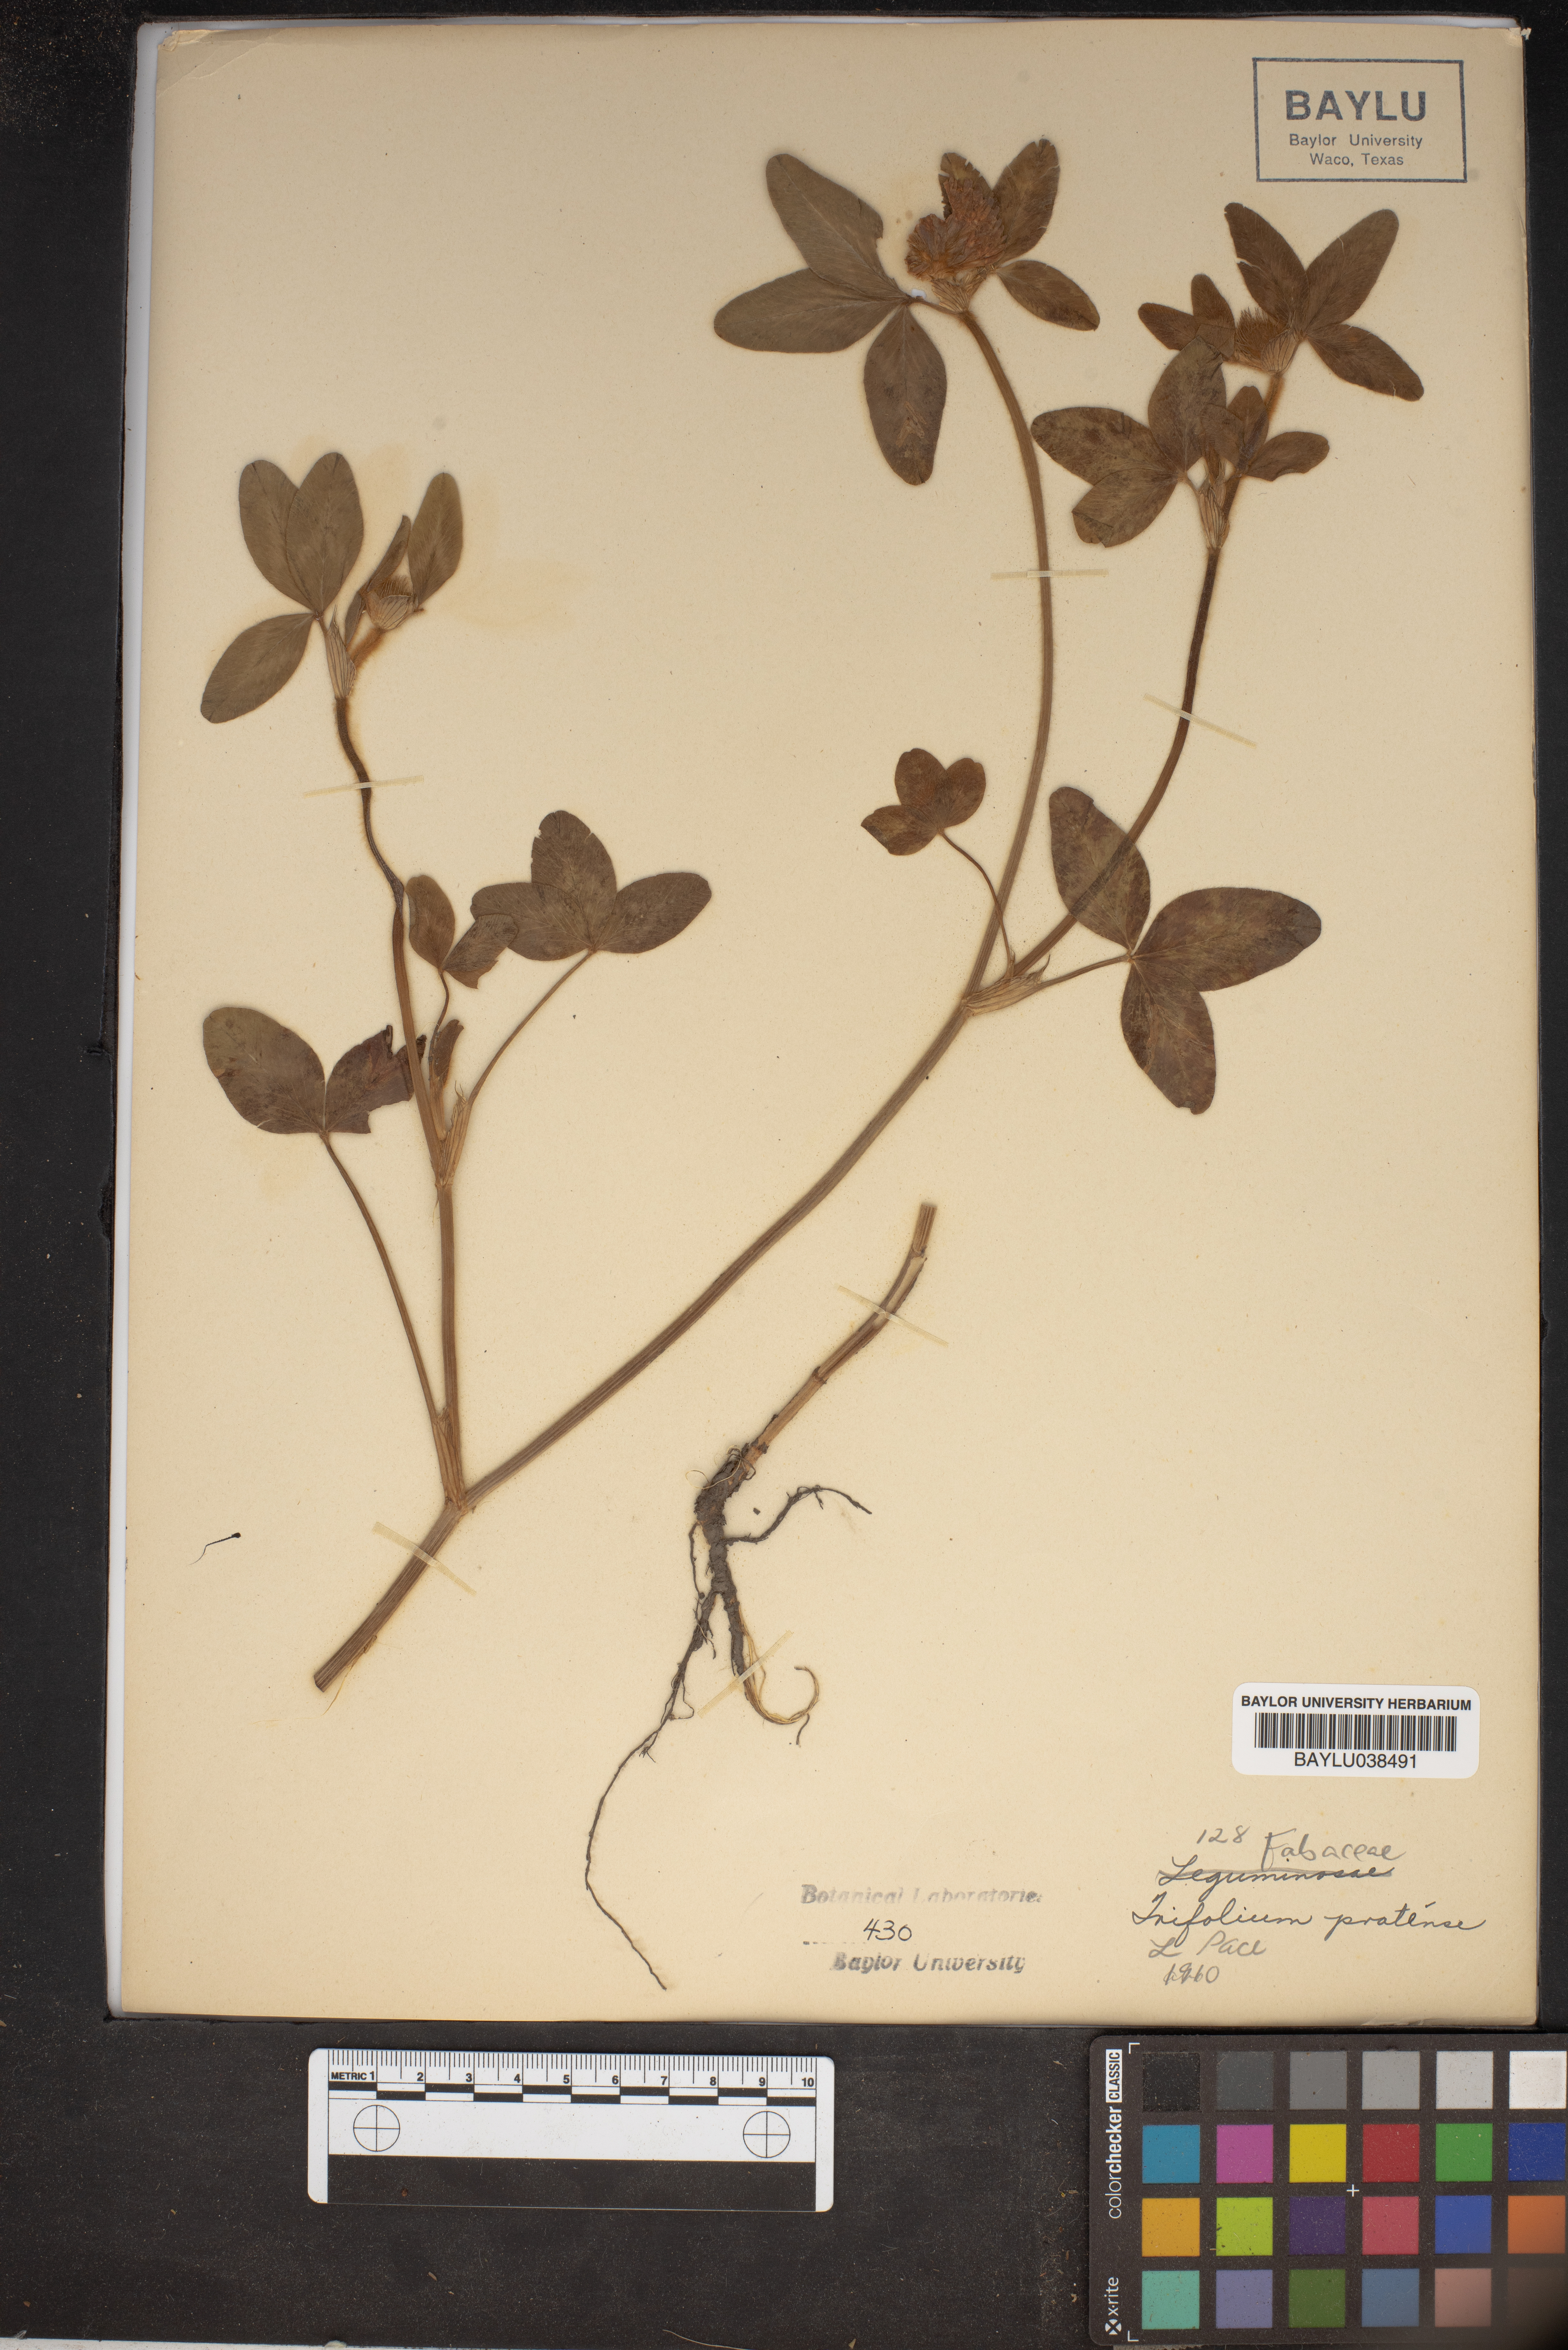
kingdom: Plantae
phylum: Tracheophyta
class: Magnoliopsida
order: Fabales
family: Fabaceae
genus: Trifolium
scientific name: Trifolium pratense
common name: Red clover
